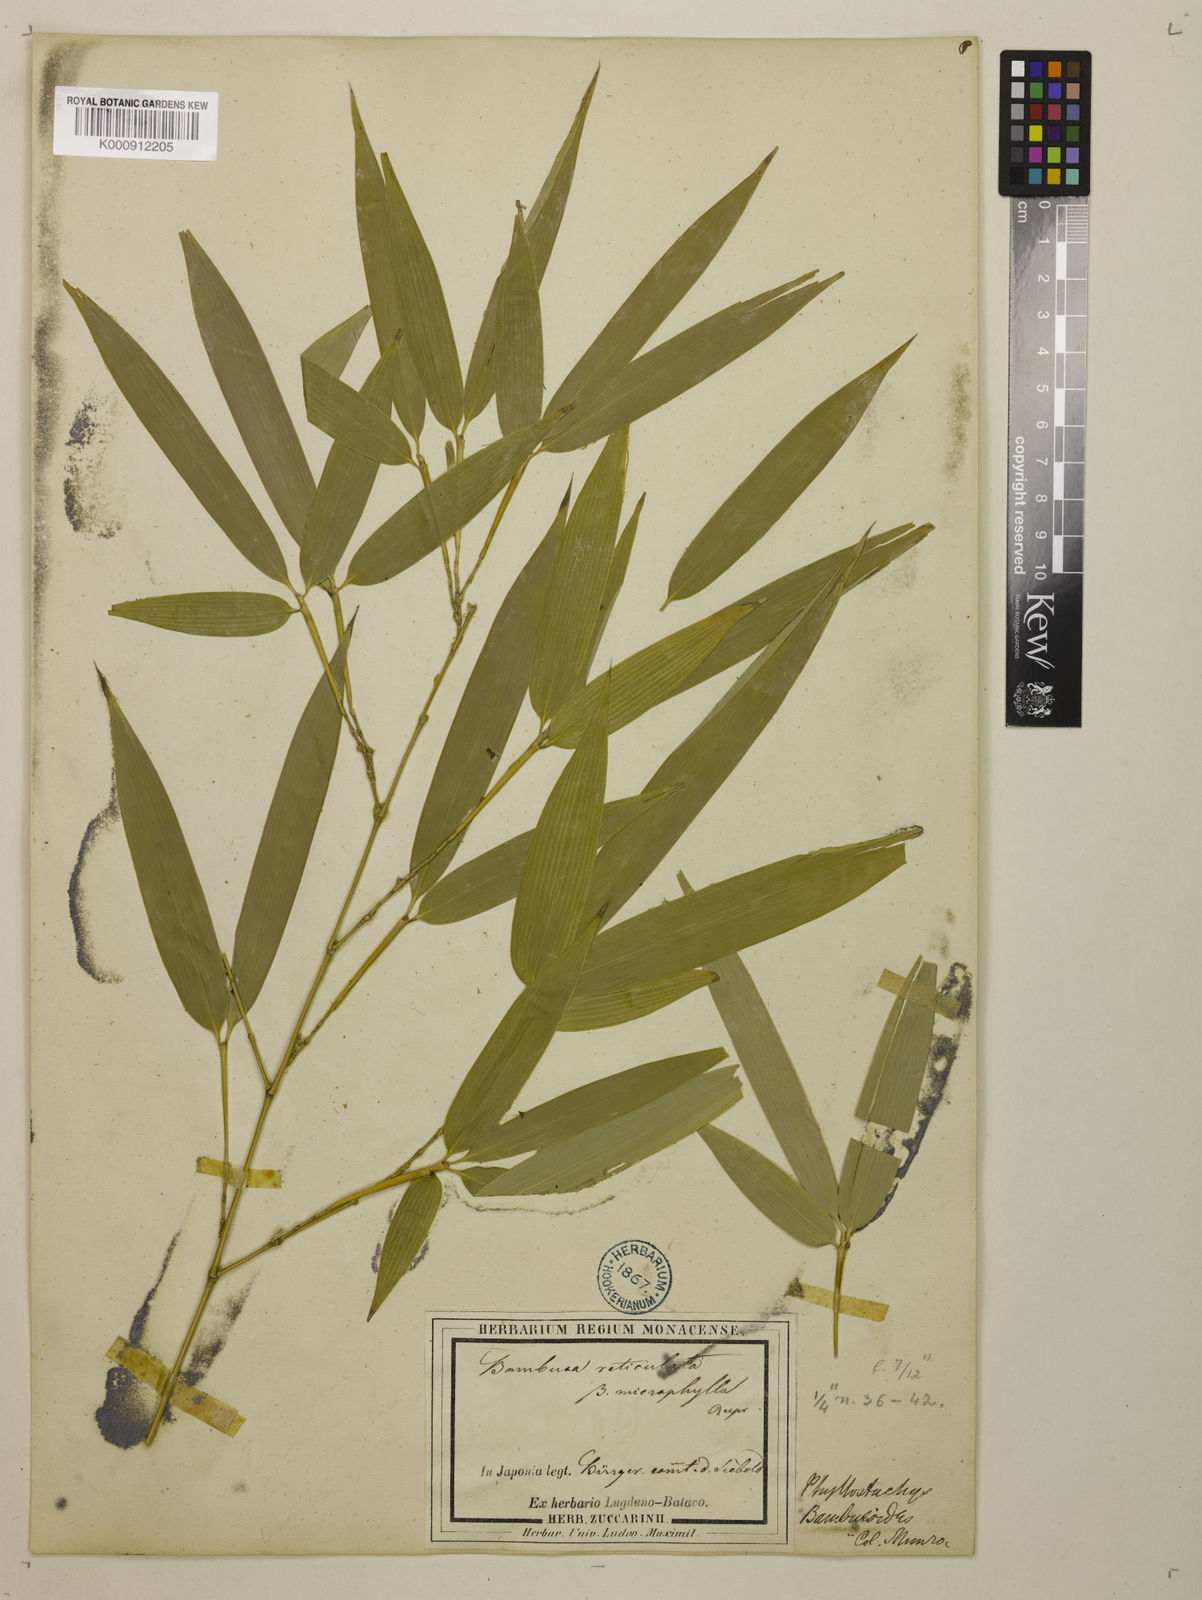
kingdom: Plantae
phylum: Tracheophyta
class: Liliopsida
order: Poales
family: Poaceae
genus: Phyllostachys
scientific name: Phyllostachys reticulata
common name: Bamboo
